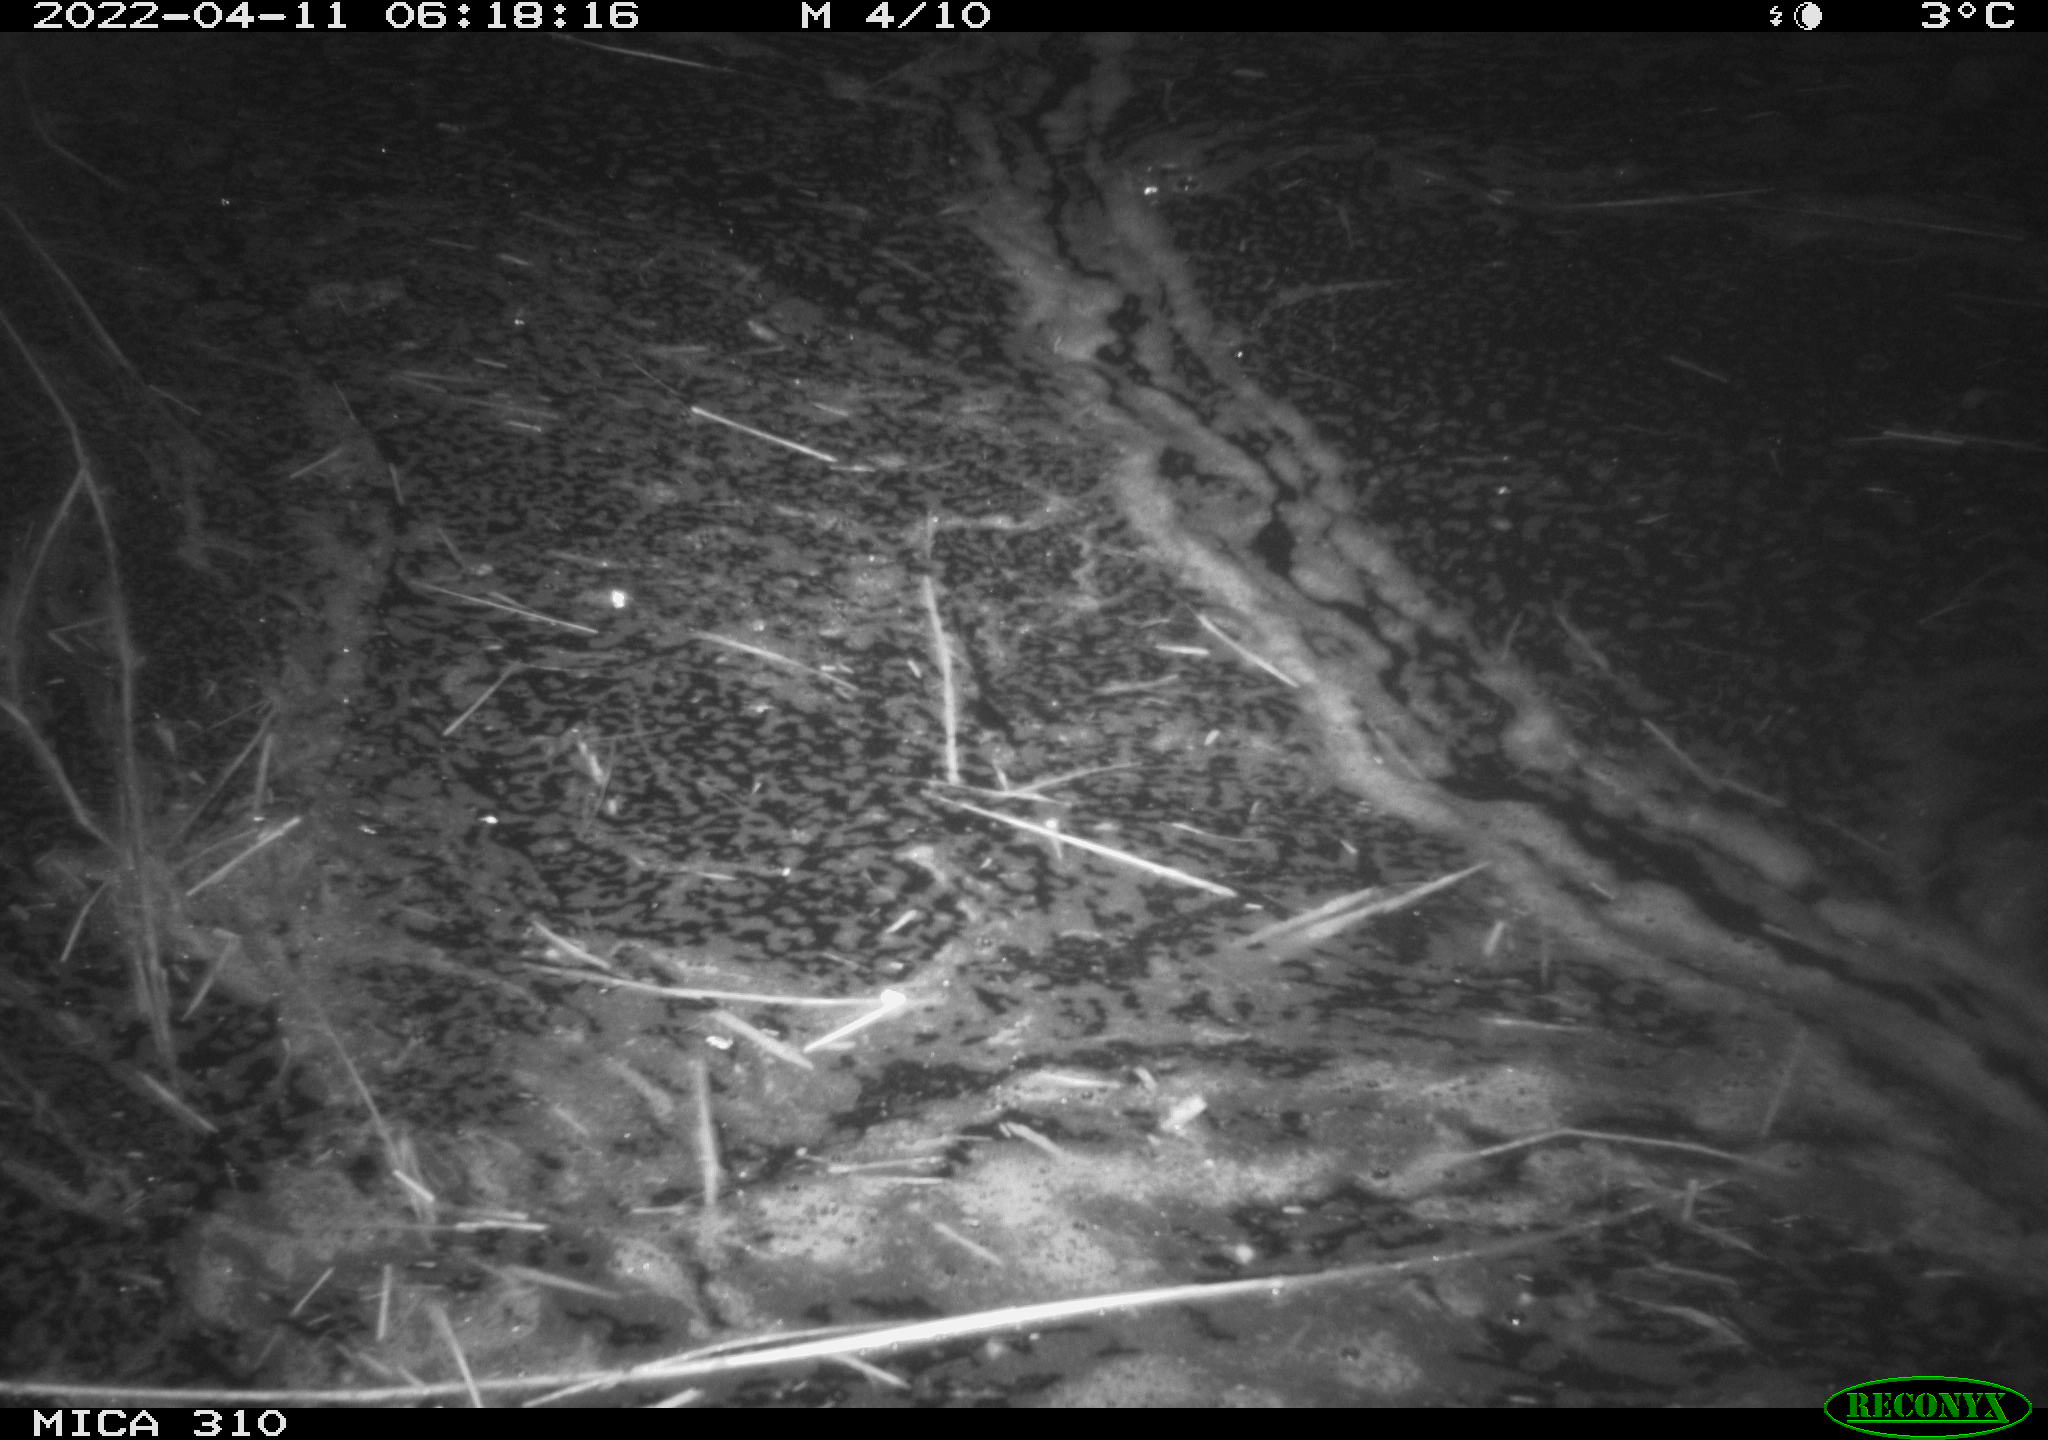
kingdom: Animalia
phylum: Chordata
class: Aves
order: Anseriformes
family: Anatidae
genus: Anas
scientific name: Anas platyrhynchos
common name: Mallard
